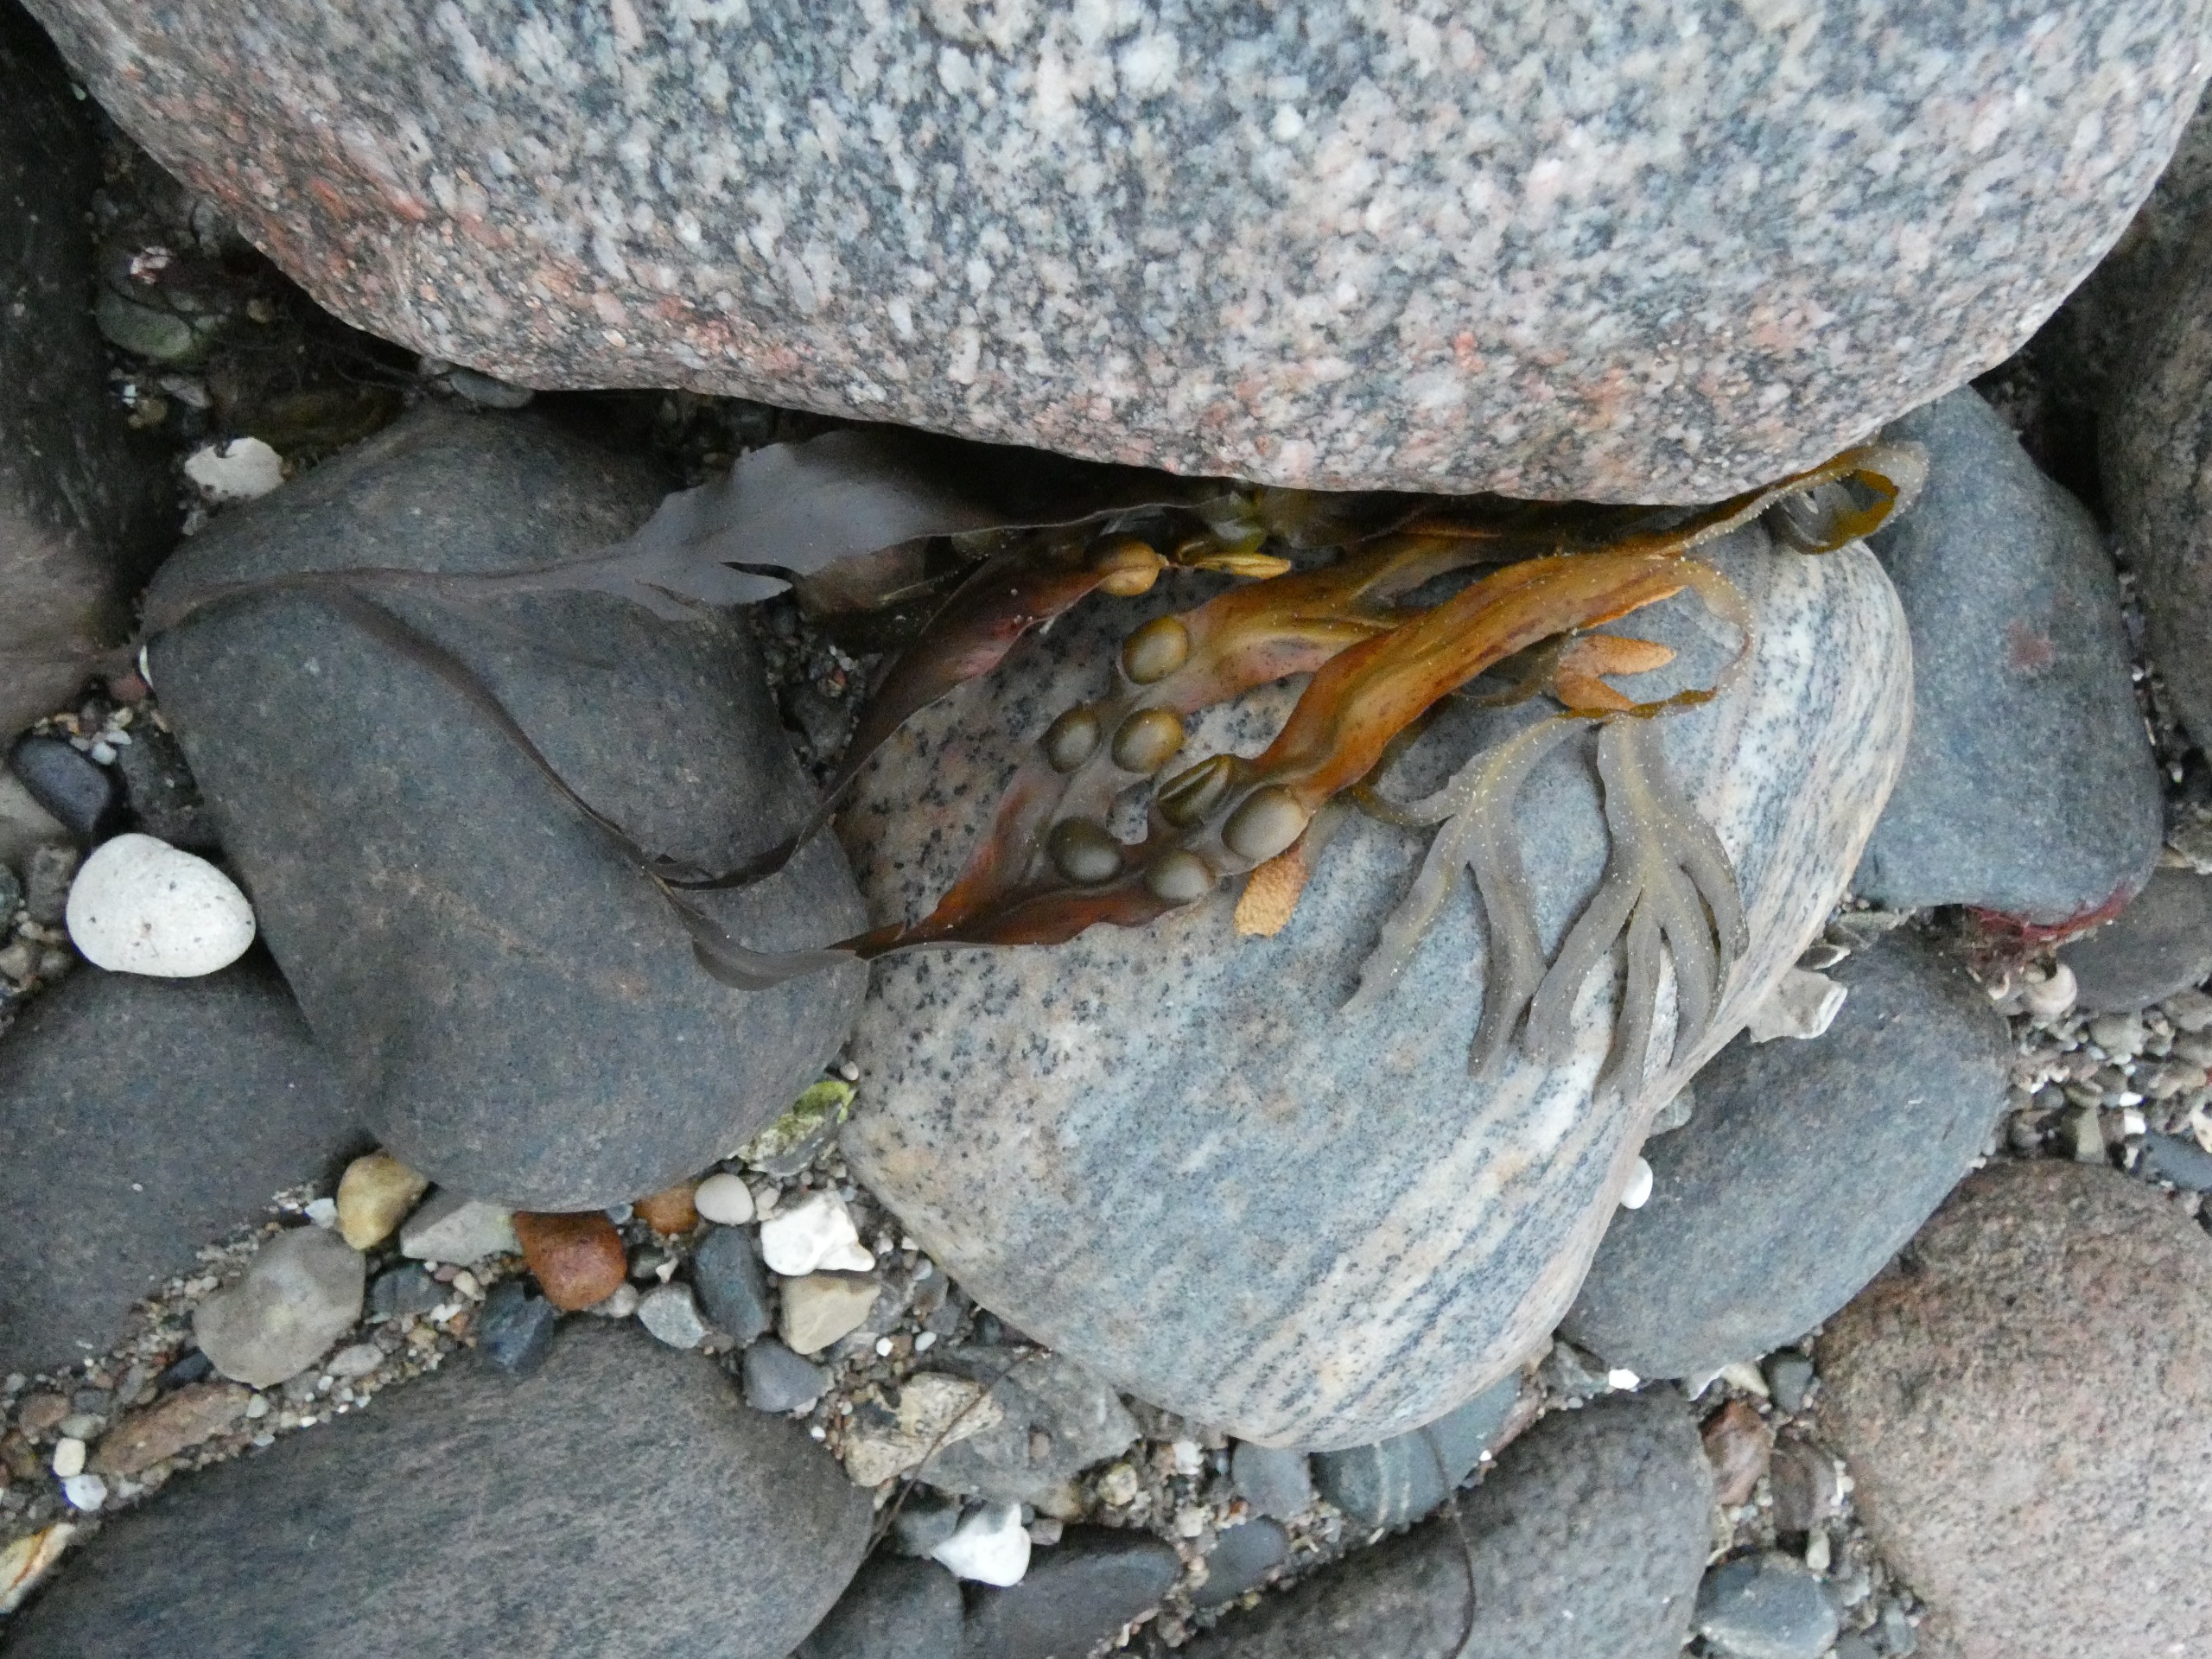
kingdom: Chromista
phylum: Ochrophyta
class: Phaeophyceae
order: Fucales
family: Fucaceae
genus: Fucus
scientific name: Fucus vesiculosus
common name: Blæretang
